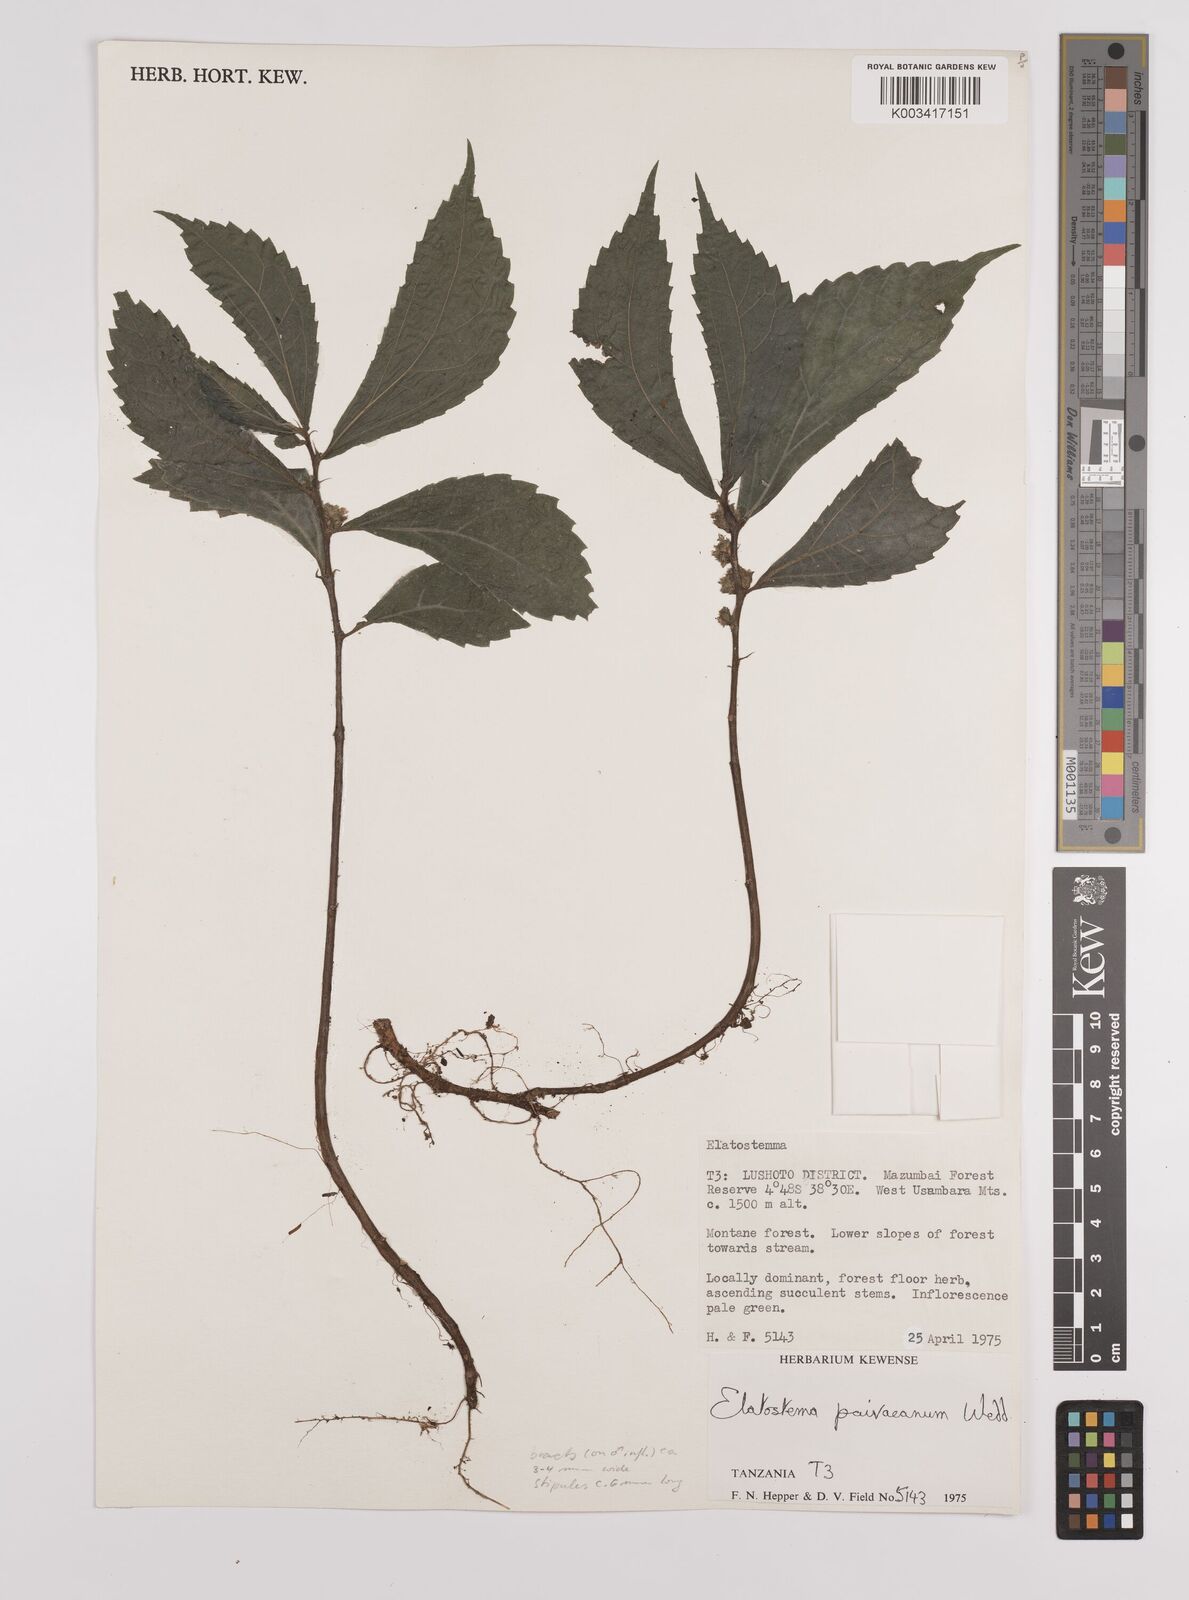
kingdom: Plantae
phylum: Tracheophyta
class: Magnoliopsida
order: Rosales
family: Urticaceae
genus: Elatostema
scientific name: Elatostema paivaeanum
